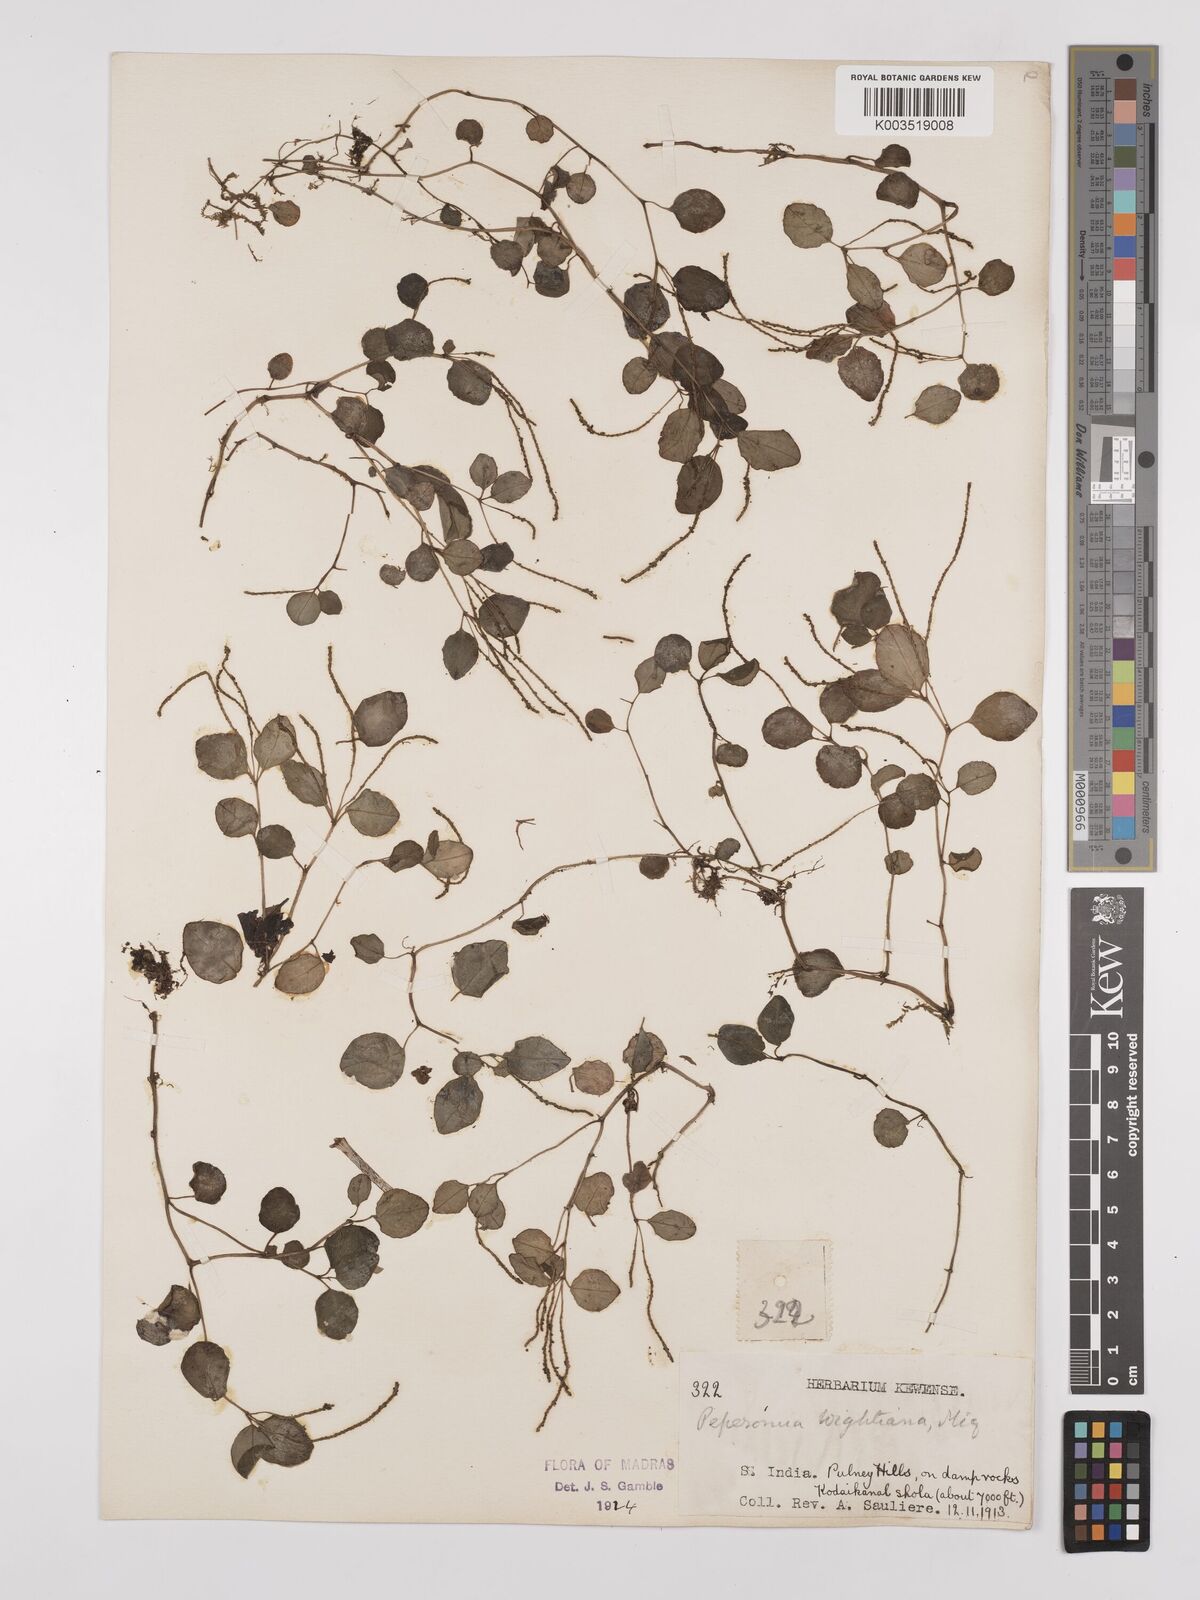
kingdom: Plantae
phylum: Tracheophyta
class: Magnoliopsida
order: Piperales
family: Piperaceae
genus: Peperomia
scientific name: Peperomia wightiana
